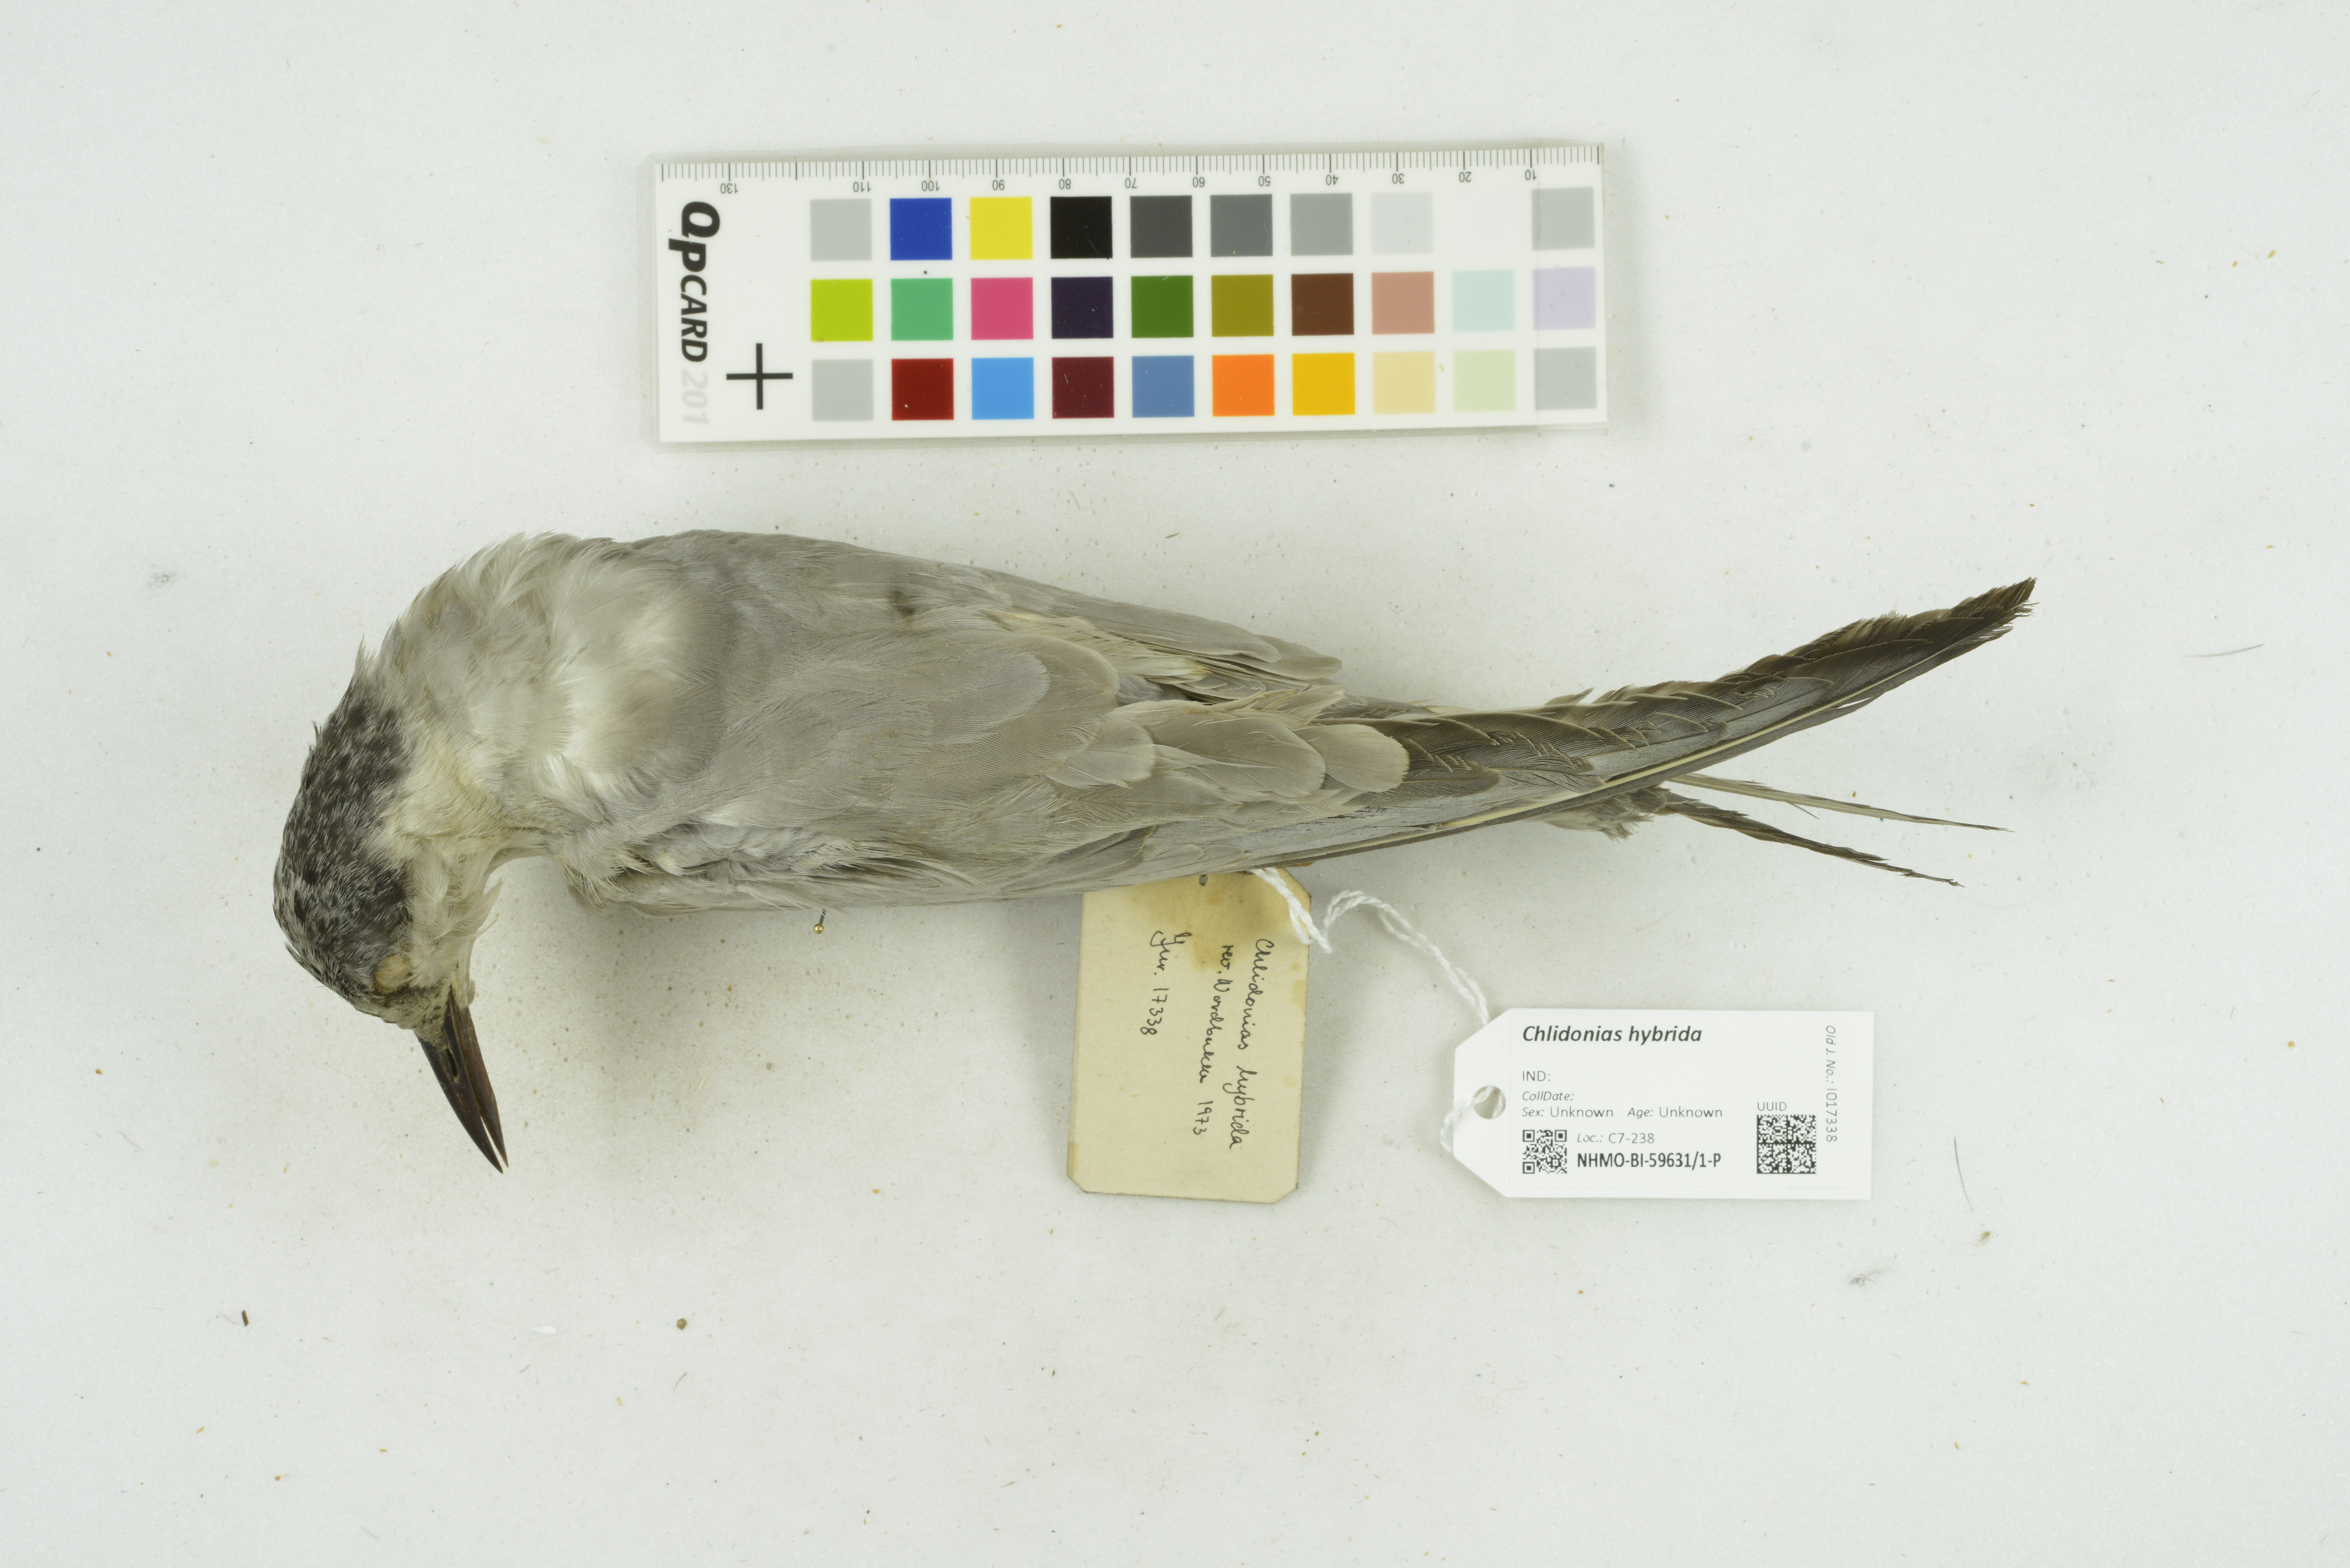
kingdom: Animalia
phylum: Chordata
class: Aves
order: Charadriiformes
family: Laridae
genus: Chlidonias
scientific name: Chlidonias hybrida
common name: Whiskered tern
